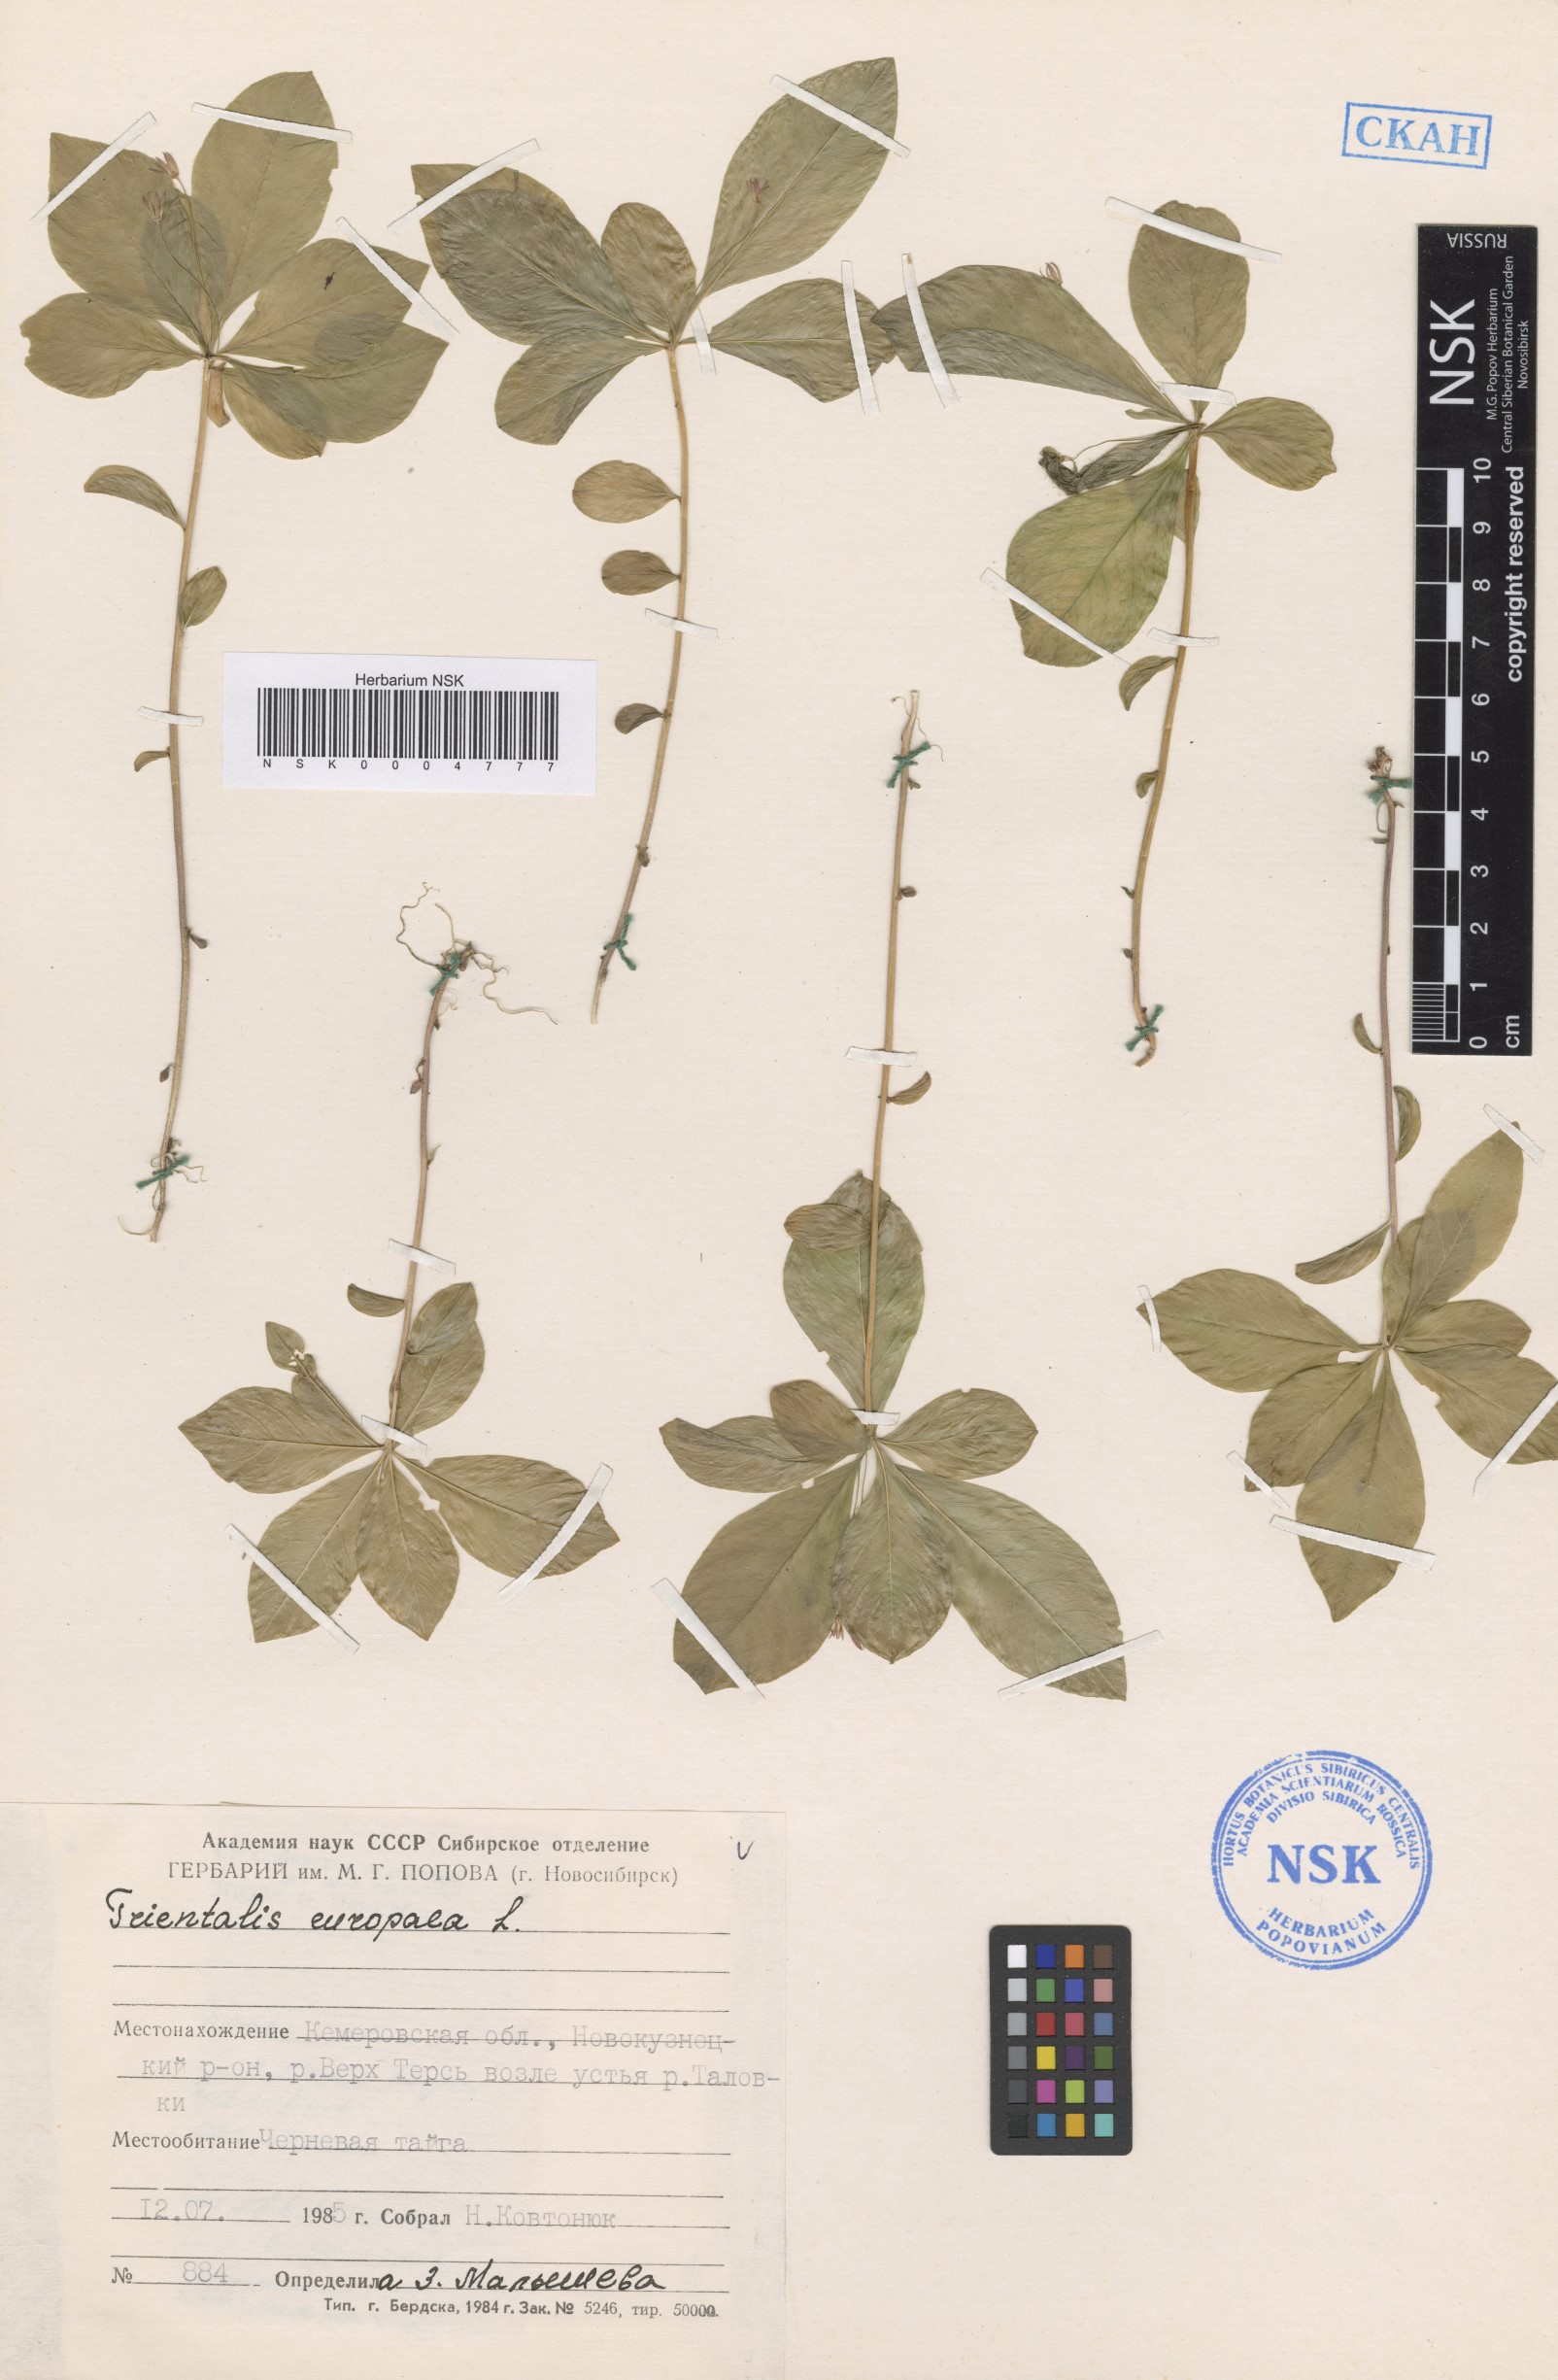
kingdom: Plantae
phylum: Tracheophyta
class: Magnoliopsida
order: Ericales
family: Primulaceae
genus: Lysimachia
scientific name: Lysimachia europaea
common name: Arctic starflower
